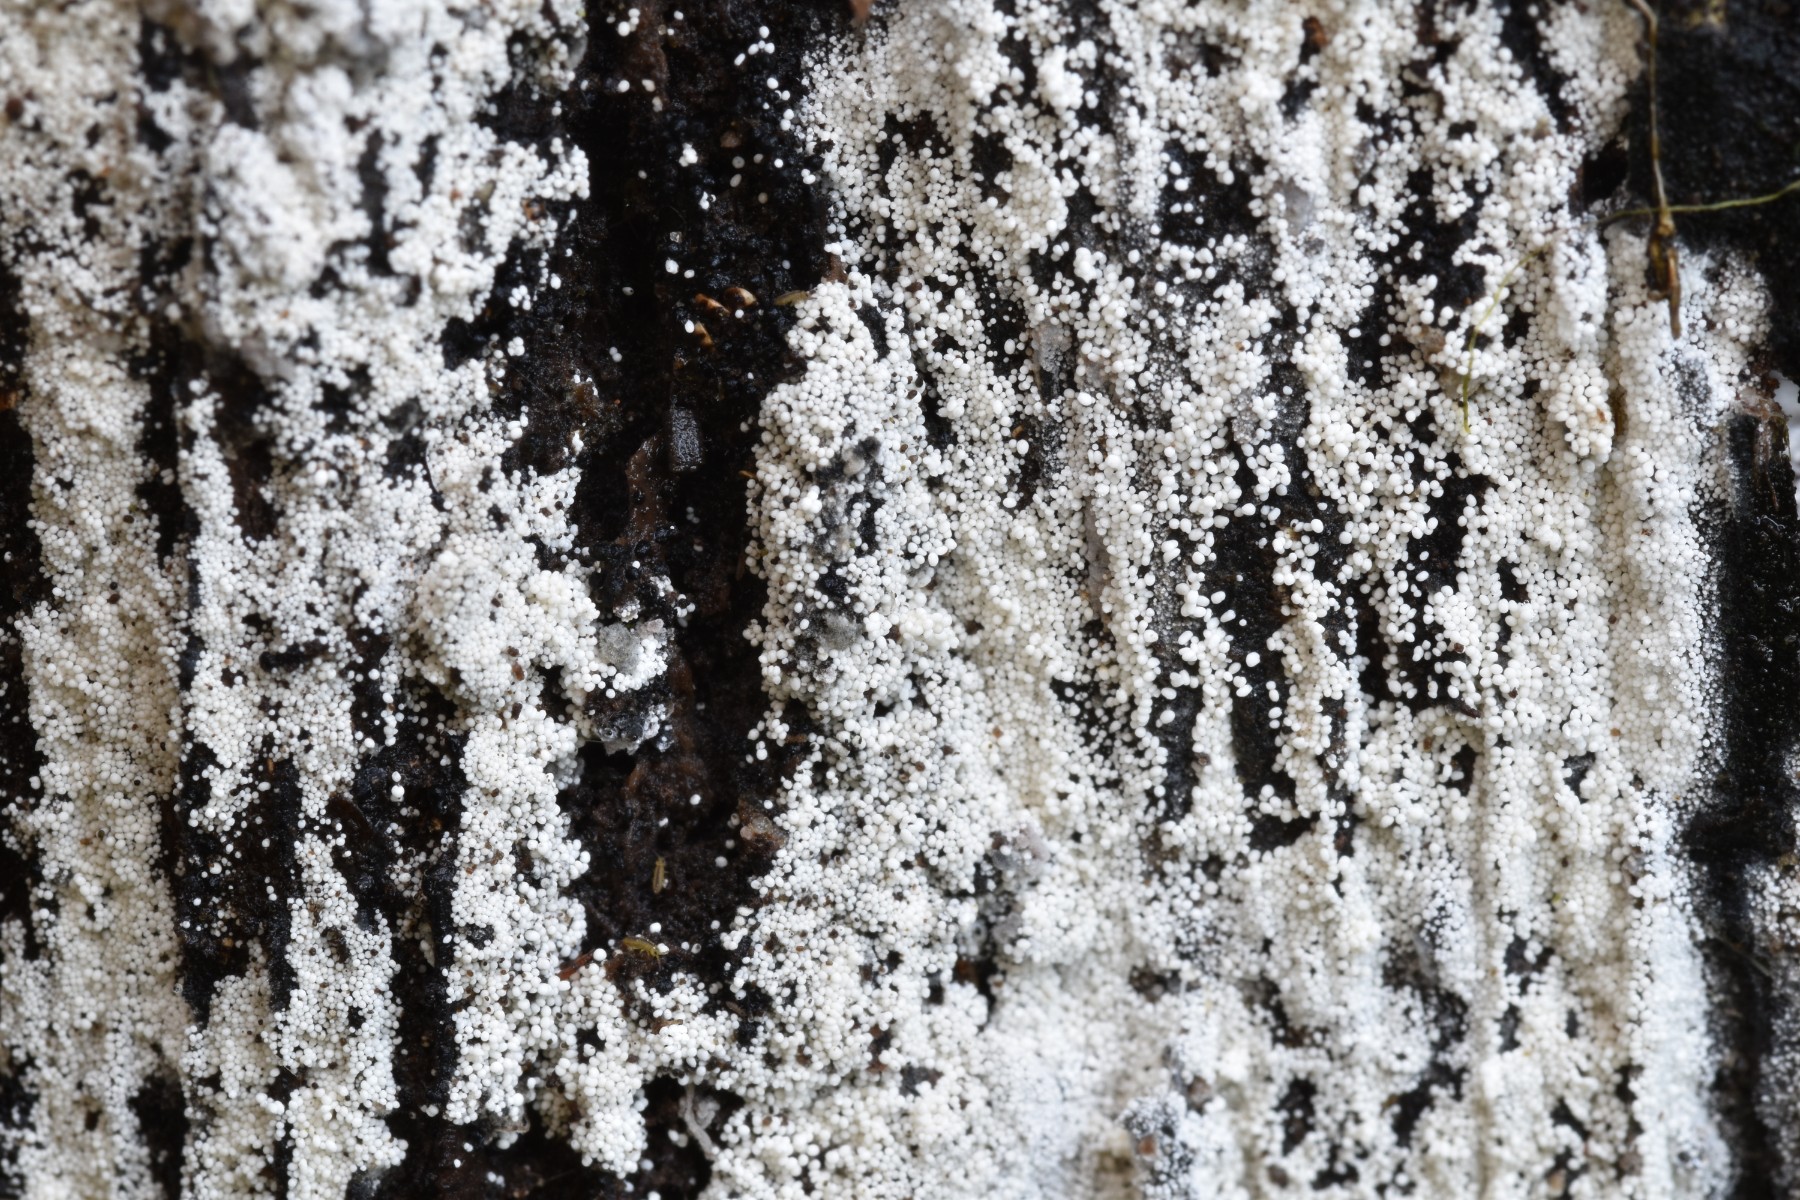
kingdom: Fungi
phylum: Basidiomycota
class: Agaricomycetes
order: Polyporales
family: Meruliaceae
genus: Bulbillomyces
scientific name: Bulbillomyces farinosus
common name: æg-kalkskind
